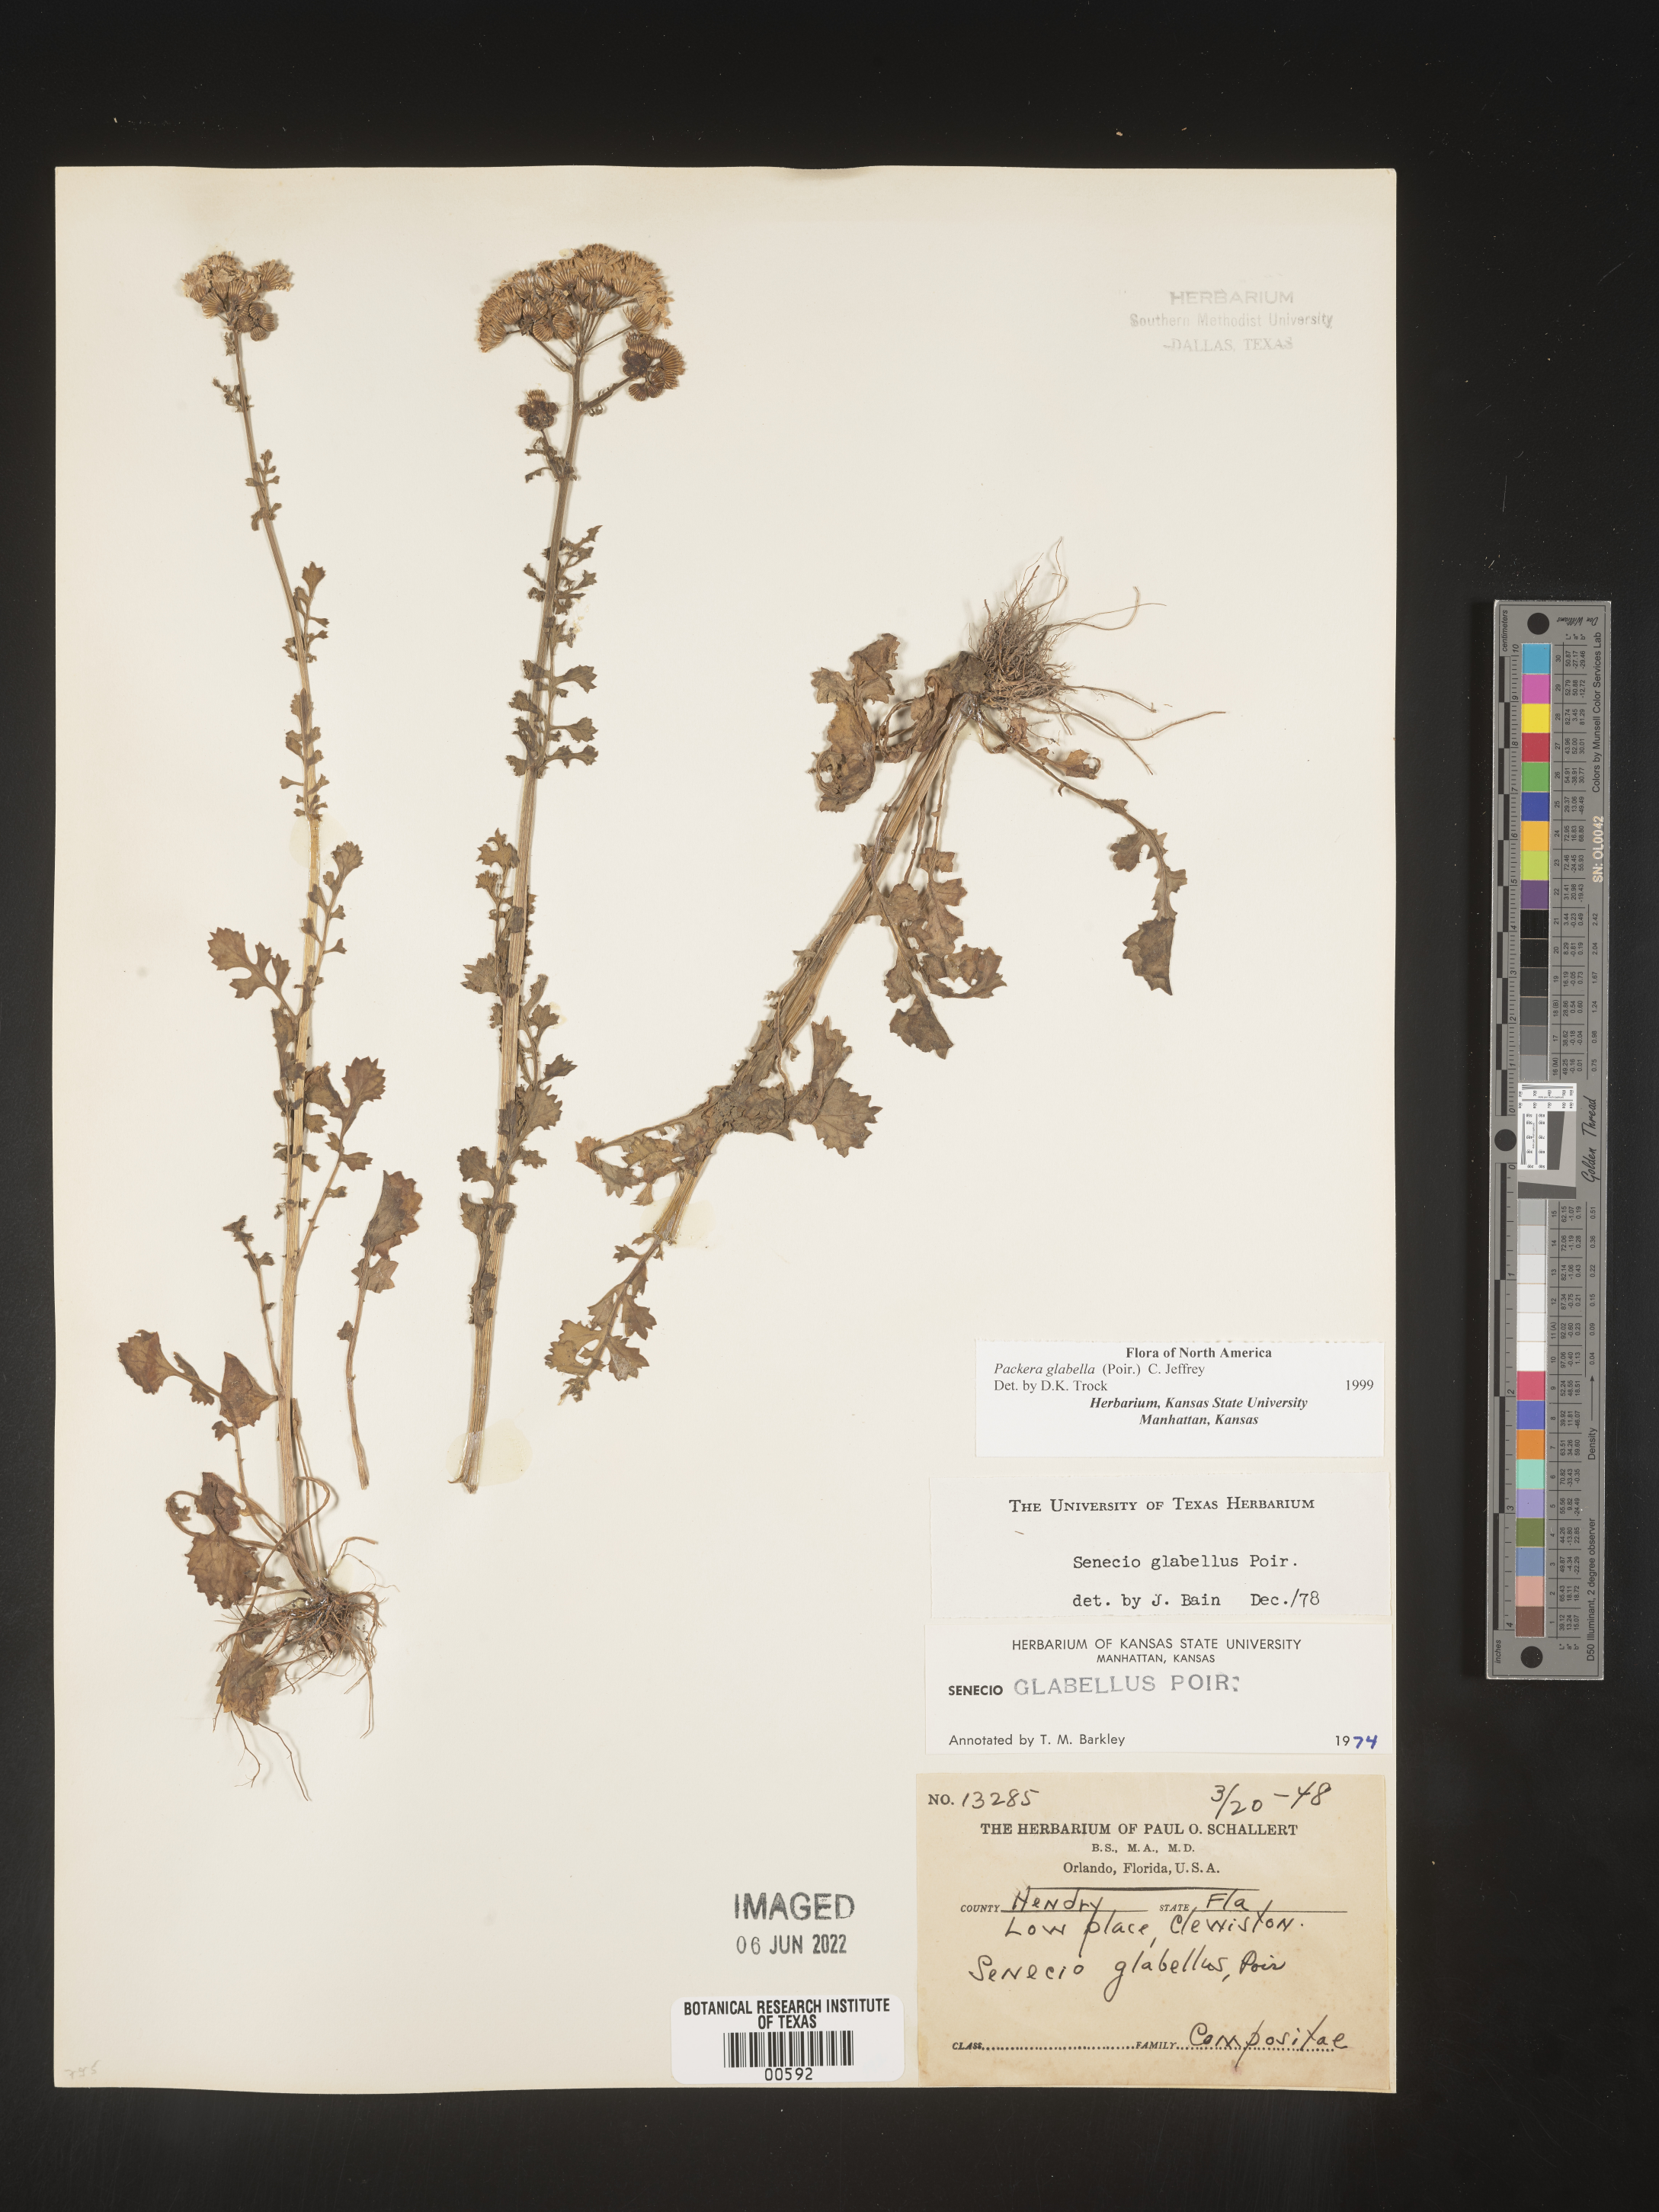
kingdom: Plantae
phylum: Tracheophyta
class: Magnoliopsida
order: Asterales
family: Asteraceae
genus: Packera
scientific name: Packera glabella
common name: Butterweed
